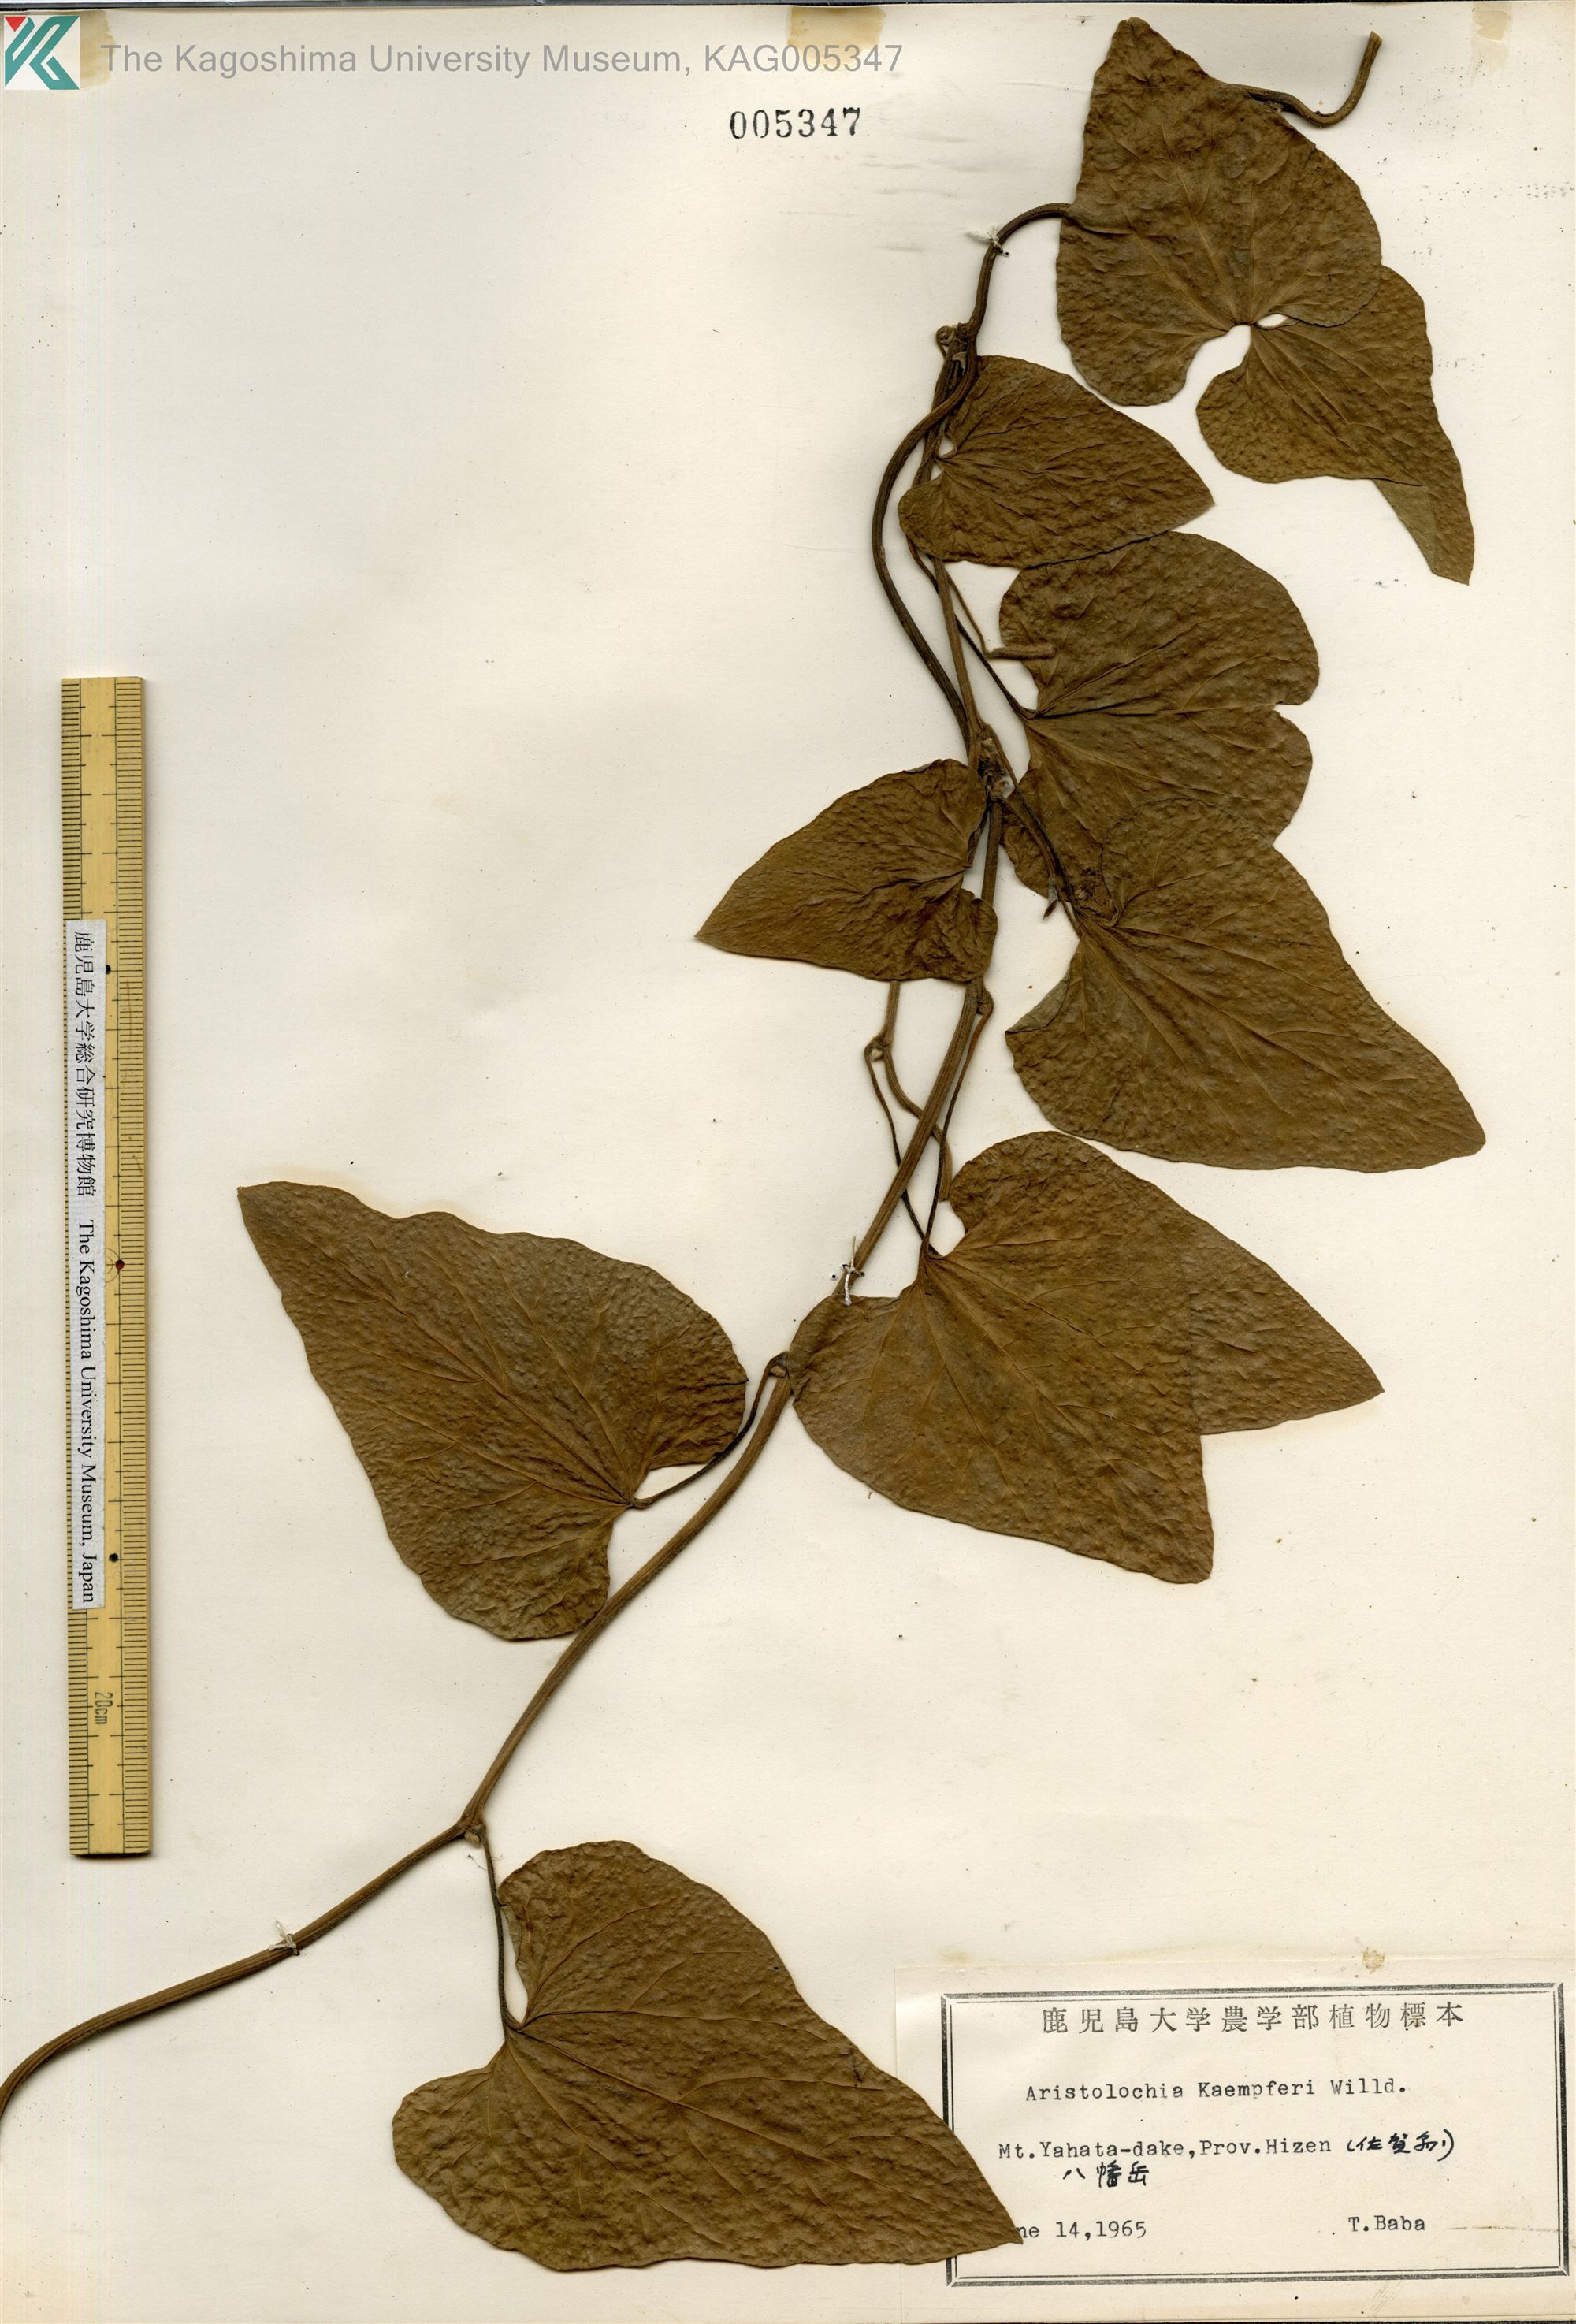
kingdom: Plantae
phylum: Tracheophyta
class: Magnoliopsida
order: Piperales
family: Aristolochiaceae
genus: Isotrema
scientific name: Isotrema kaempferi
